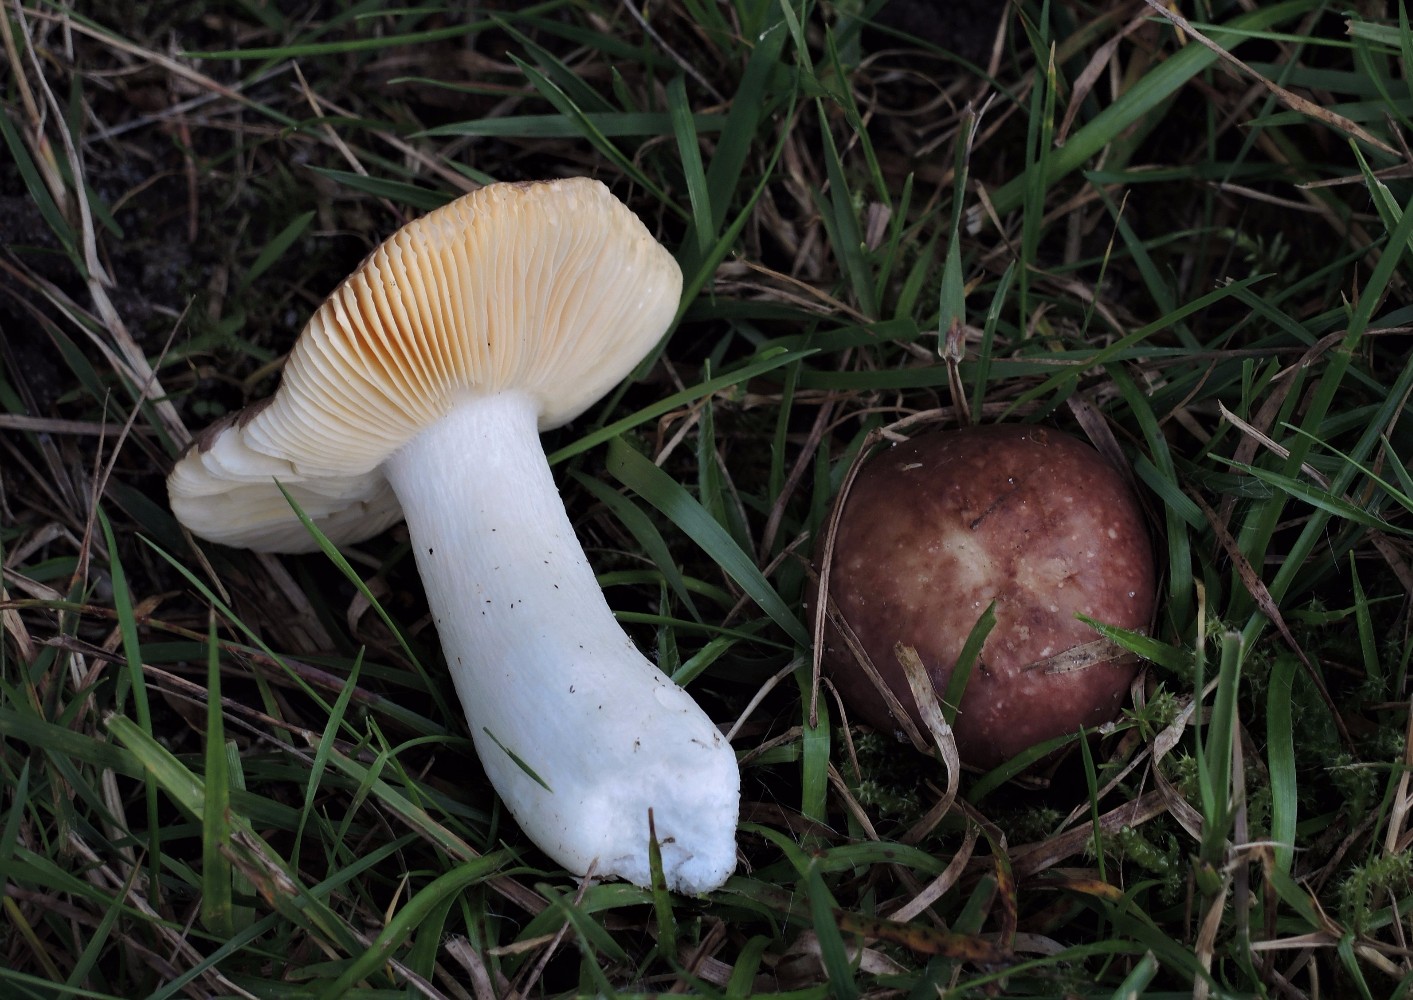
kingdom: Fungi
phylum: Basidiomycota
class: Agaricomycetes
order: Russulales
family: Russulaceae
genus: Russula
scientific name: Russula nauseosa
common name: spinkel skørhat
